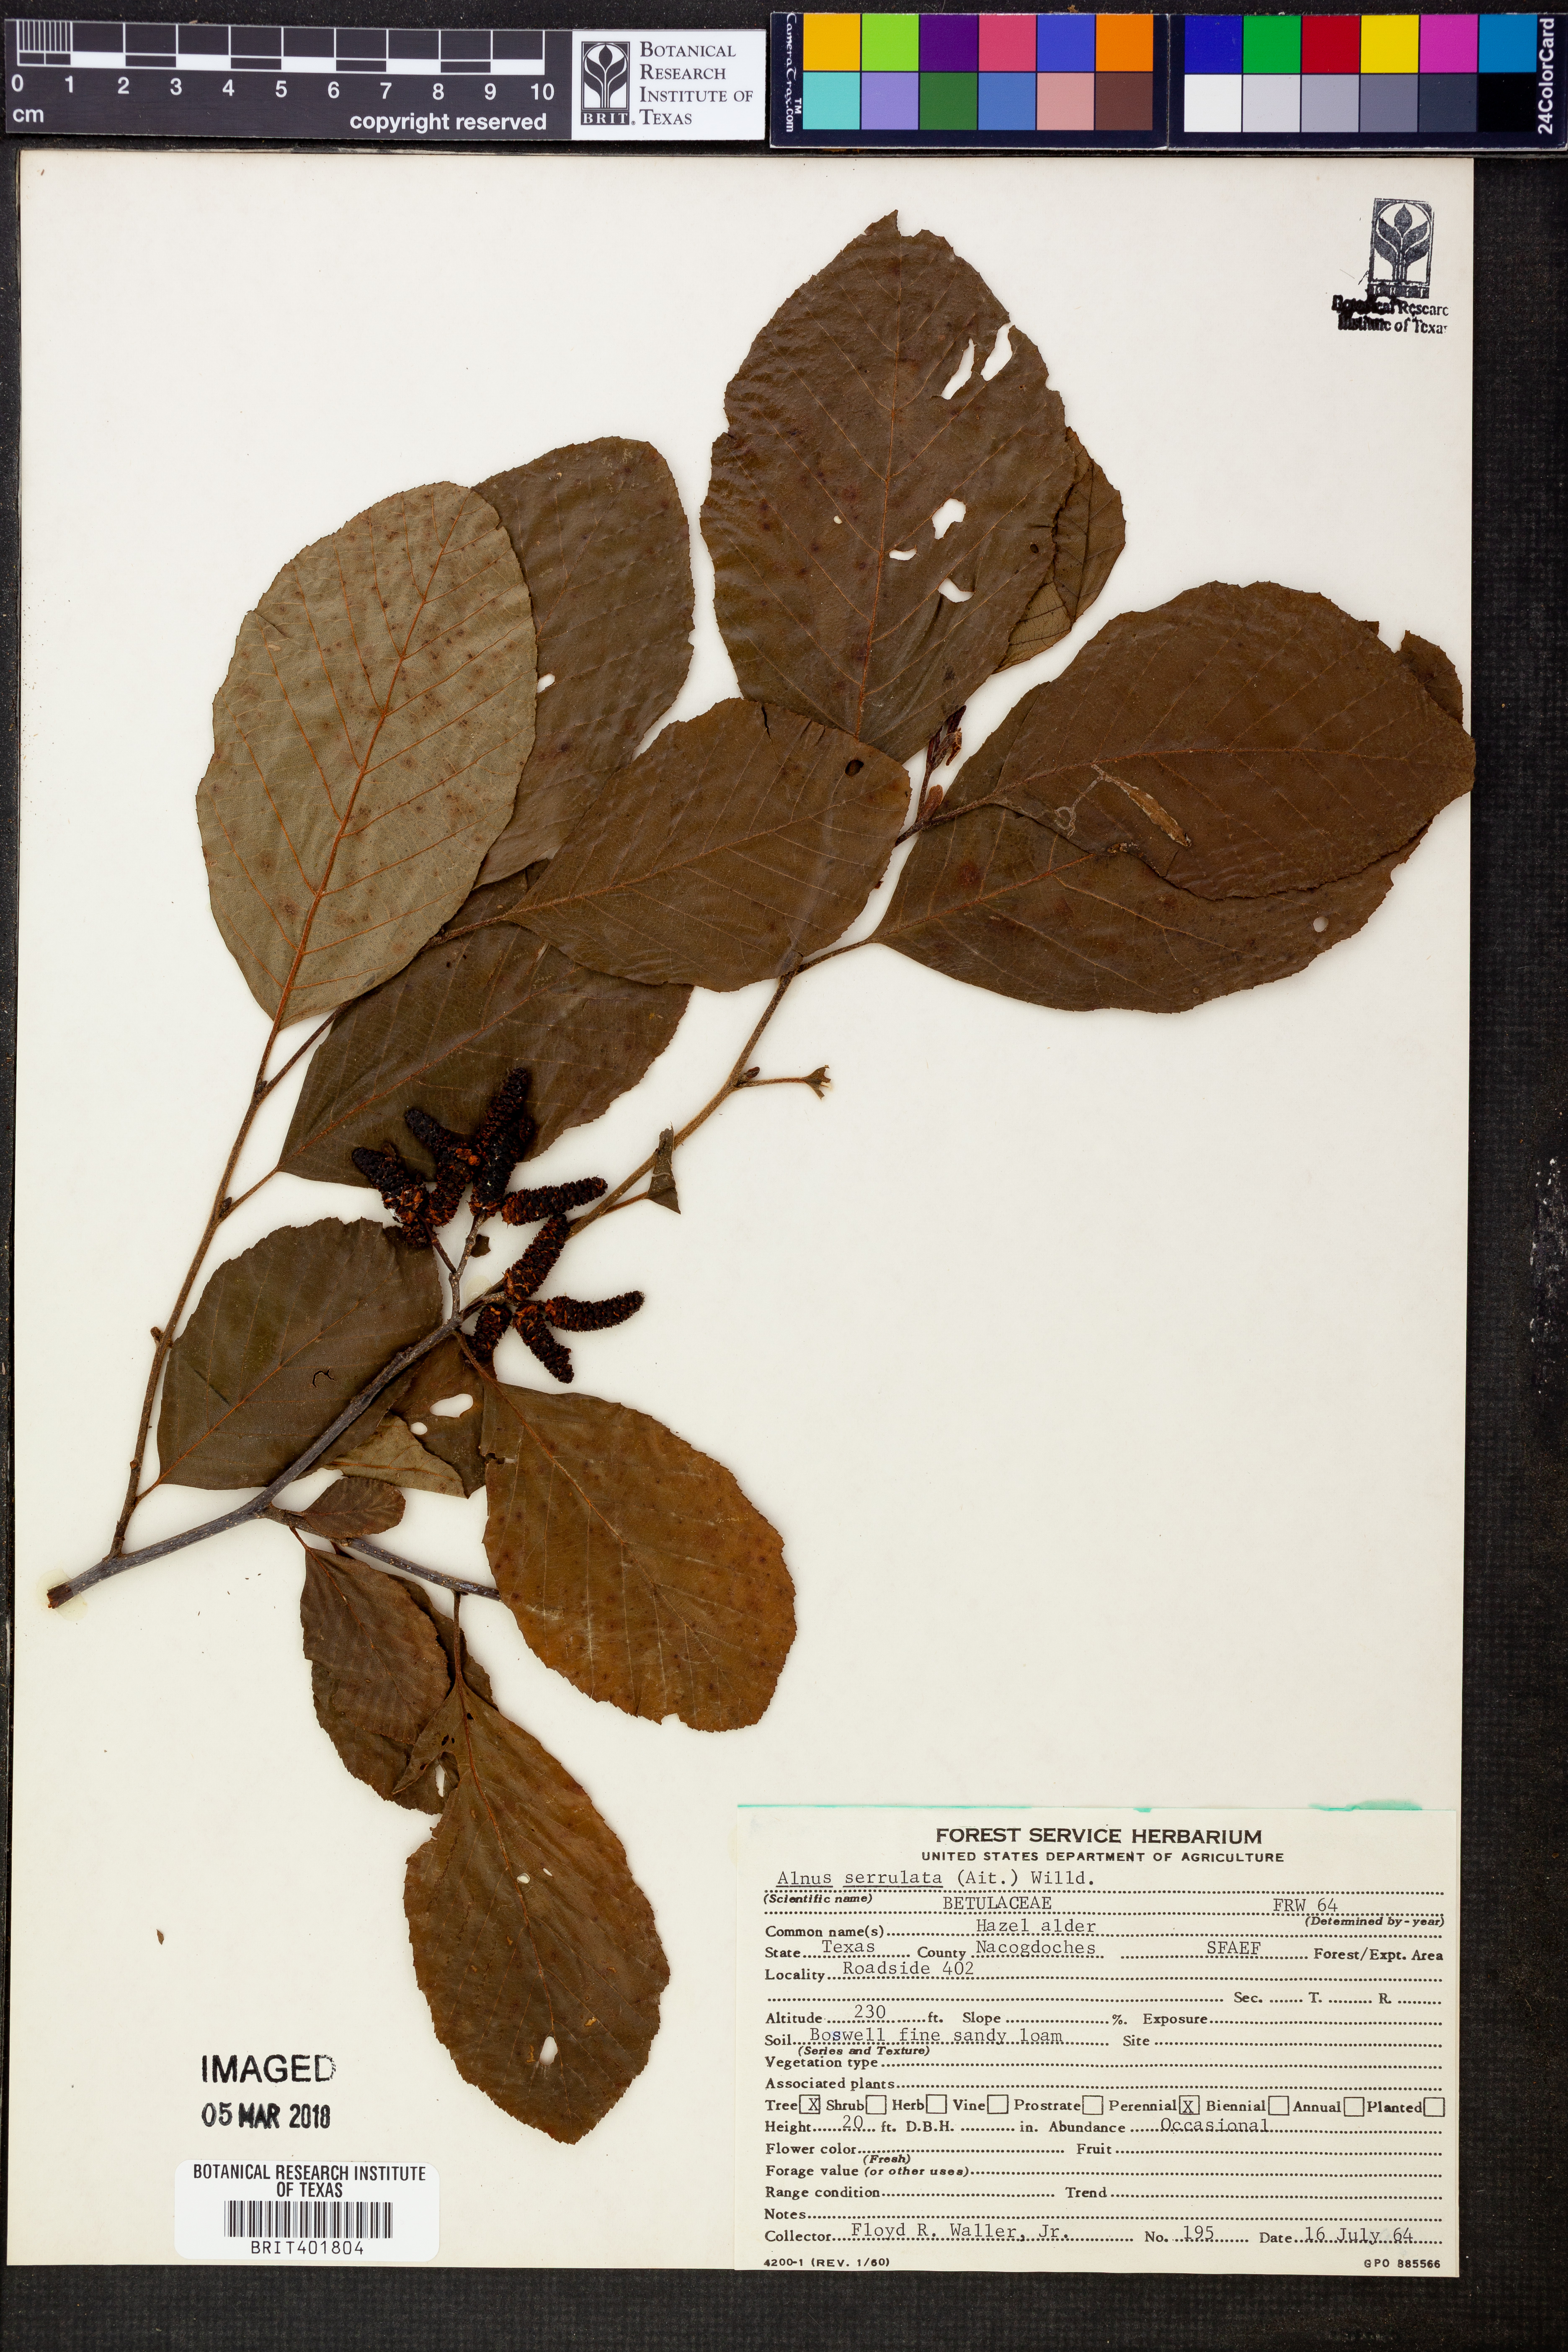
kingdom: Plantae
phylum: Tracheophyta
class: Magnoliopsida
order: Fagales
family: Betulaceae
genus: Alnus
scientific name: Alnus serrulata
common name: Hazel alder
